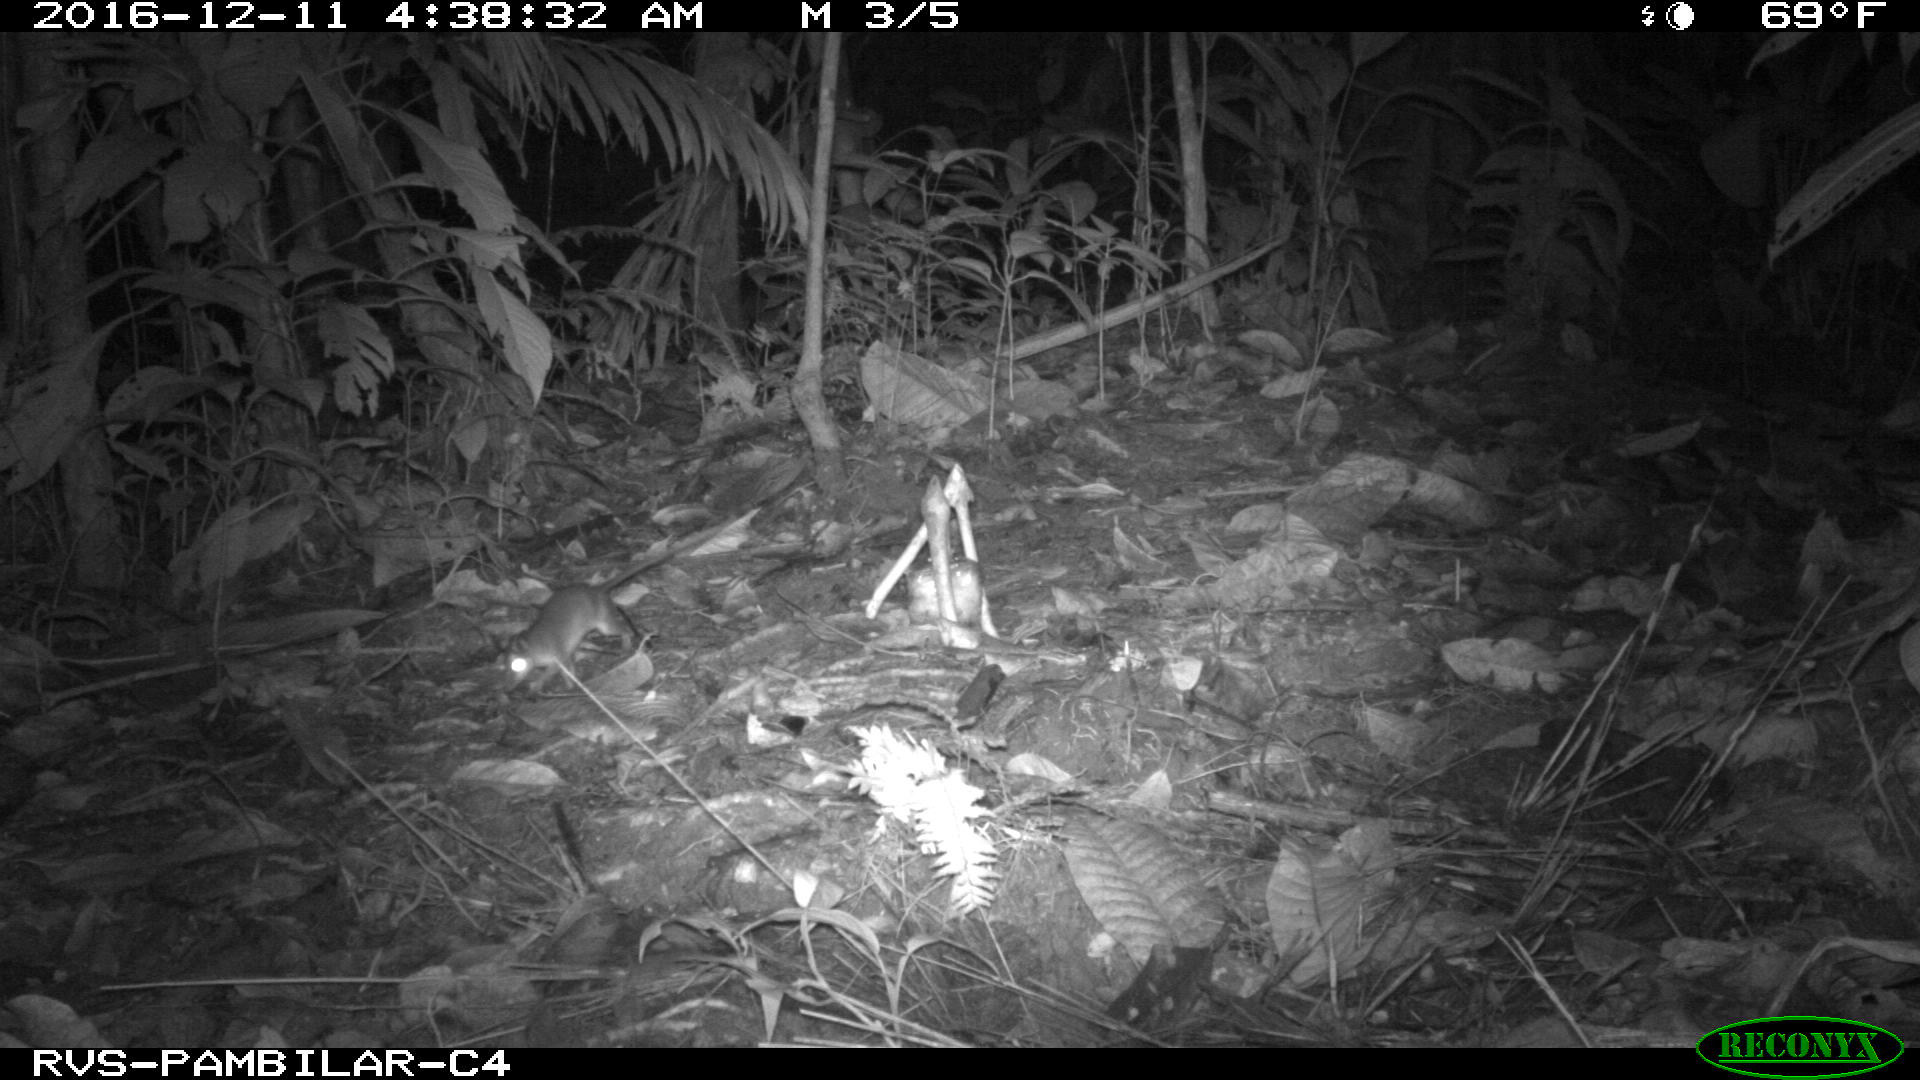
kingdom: Animalia
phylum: Chordata
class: Mammalia
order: Rodentia
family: Echimyidae
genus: Proechimys
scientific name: Proechimys
